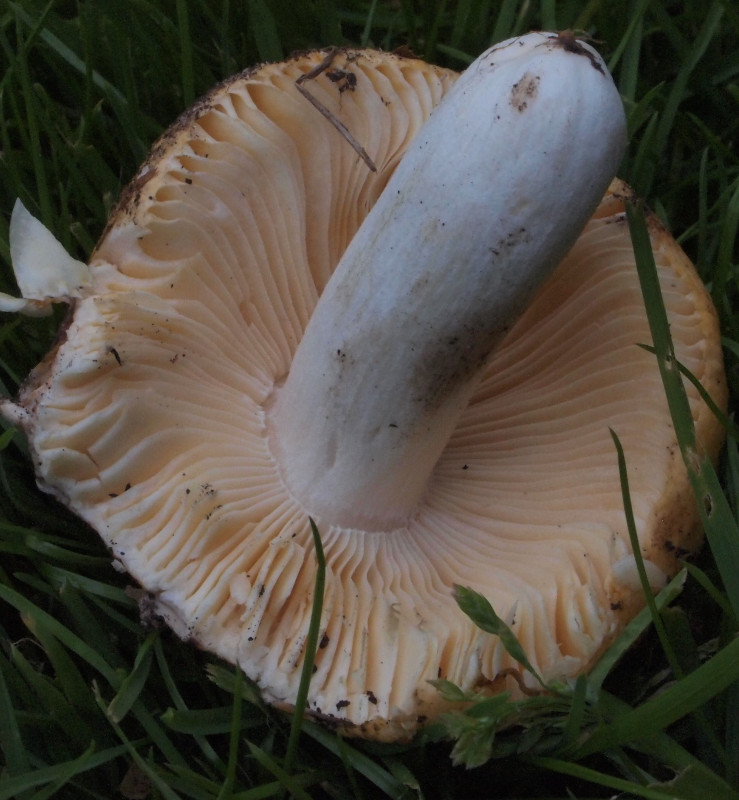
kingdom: Fungi
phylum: Basidiomycota
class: Agaricomycetes
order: Russulales
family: Russulaceae
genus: Russula
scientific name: Russula risigallina
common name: abrikos-skørhat
